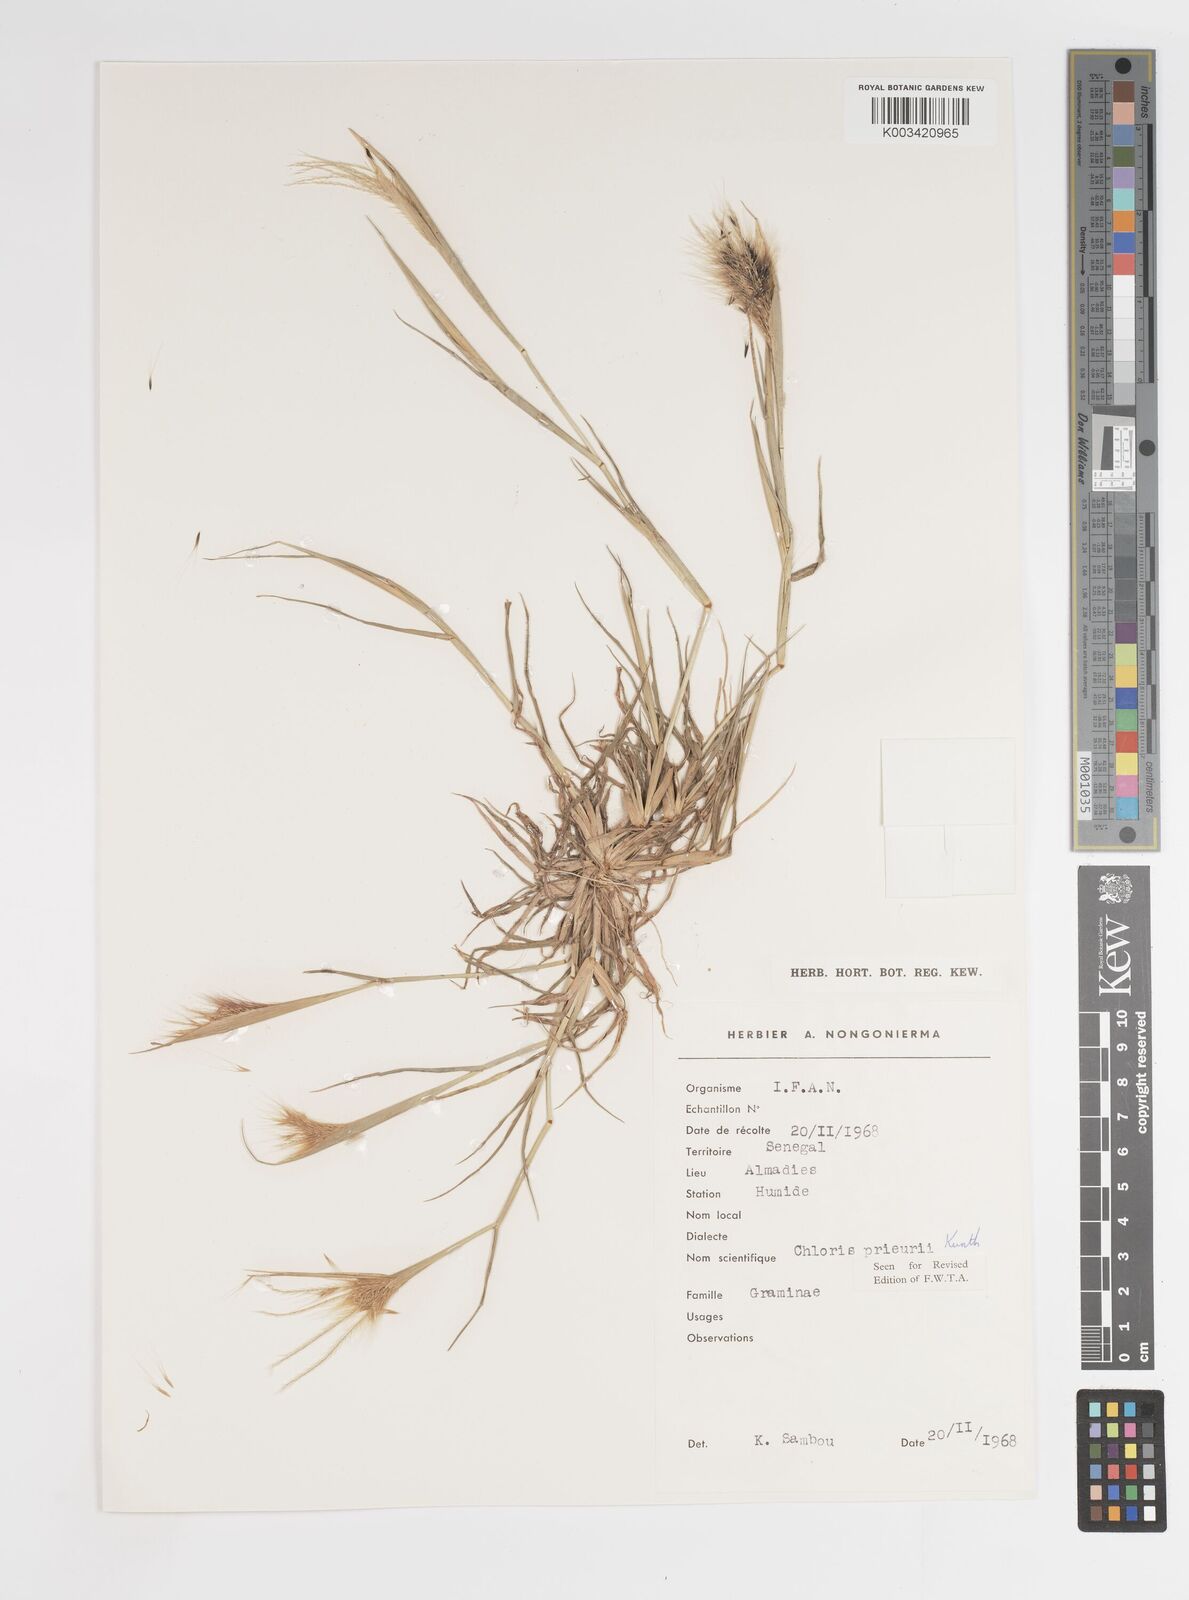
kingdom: Plantae
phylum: Tracheophyta
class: Liliopsida
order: Poales
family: Poaceae
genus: Enteropogon
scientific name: Enteropogon prieurii
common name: Prieur's umbrellagrass
